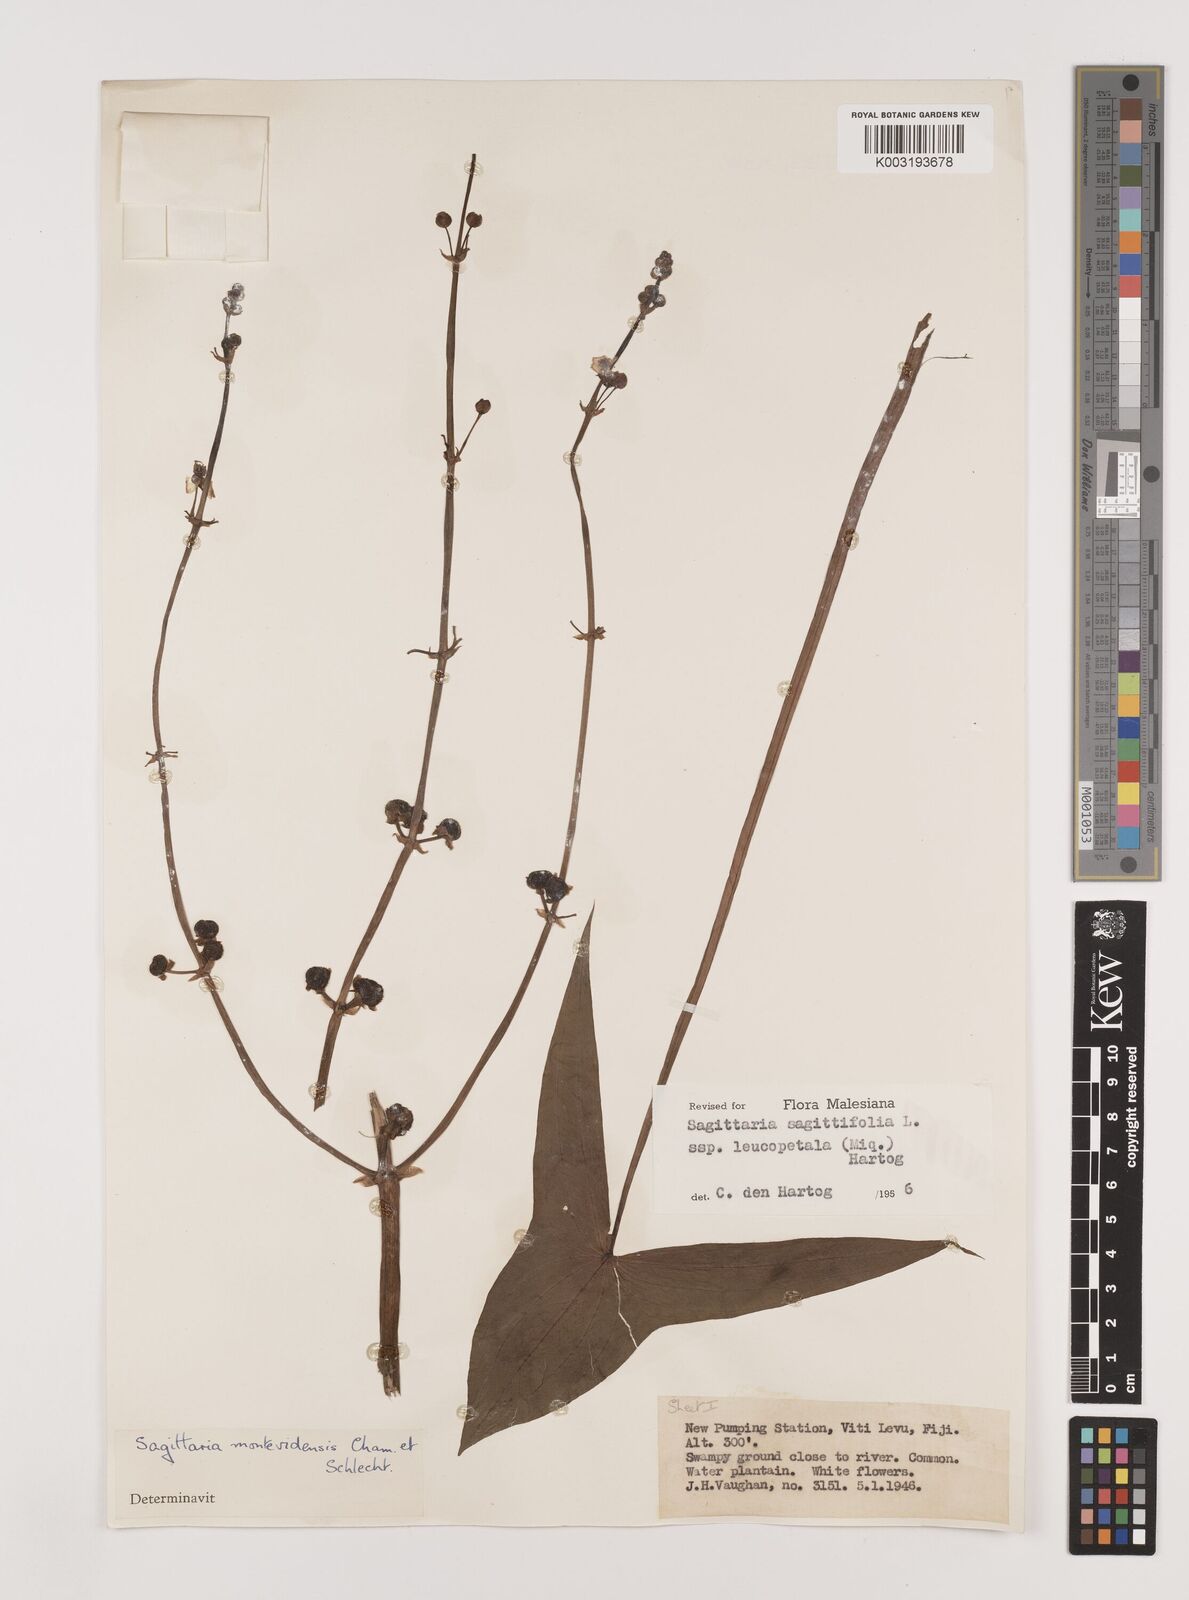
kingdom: Plantae
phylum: Tracheophyta
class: Liliopsida
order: Alismatales
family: Alismataceae
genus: Sagittaria
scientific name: Sagittaria trifolia
